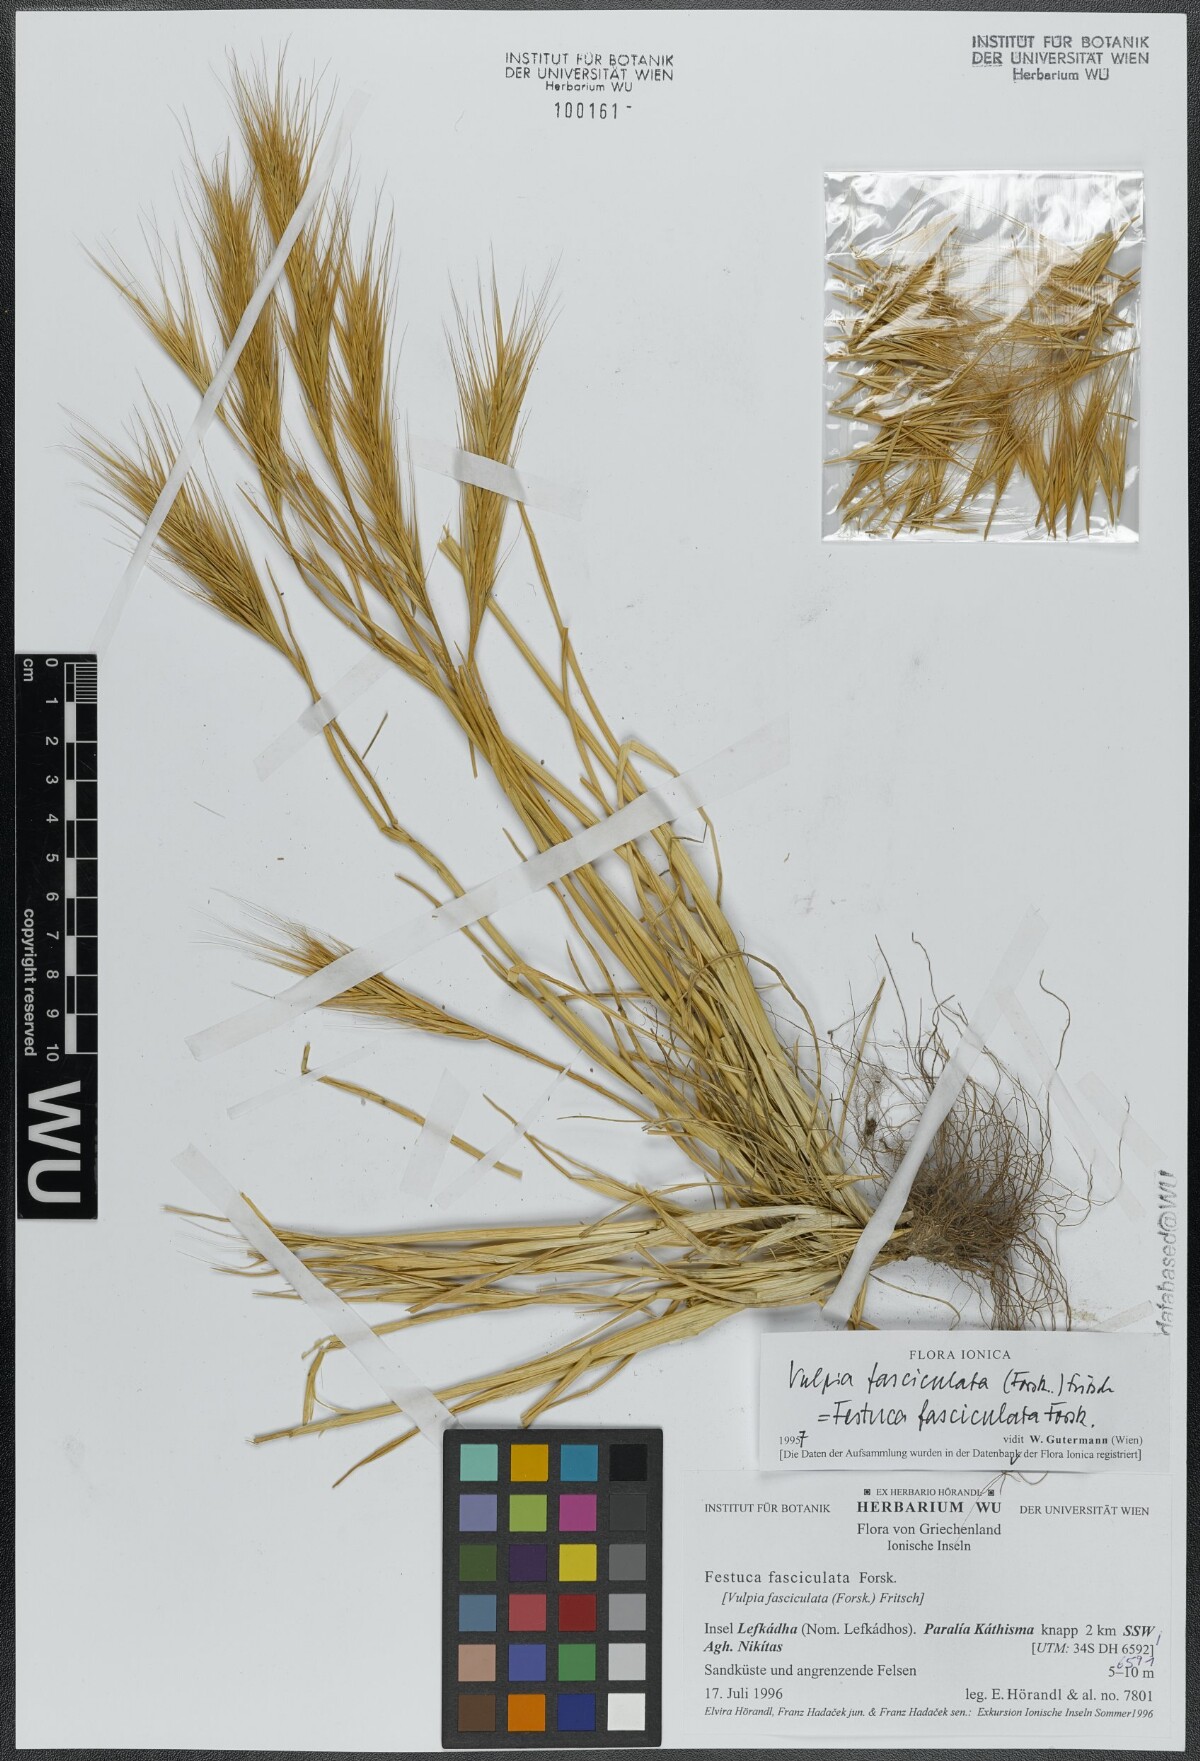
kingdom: Plantae
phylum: Tracheophyta
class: Liliopsida
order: Poales
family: Poaceae
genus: Festuca
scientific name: Festuca fasciculata
